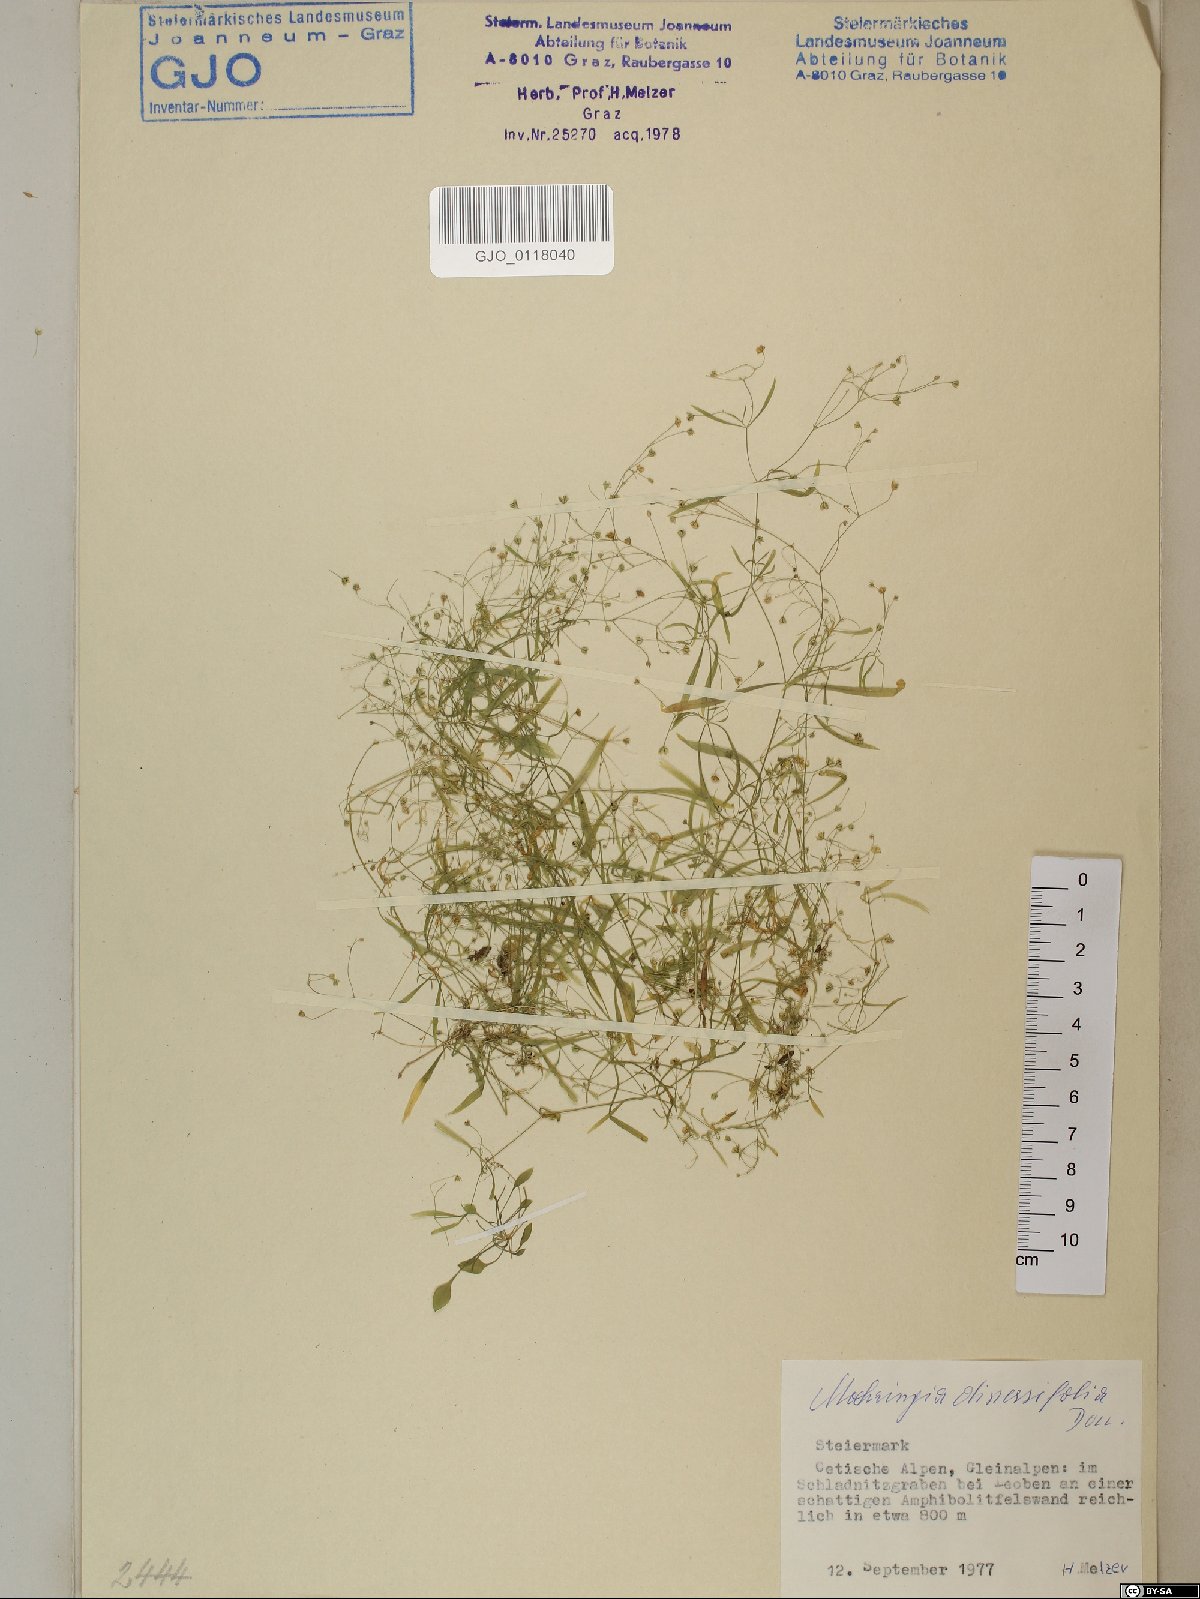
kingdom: Plantae
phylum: Tracheophyta
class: Magnoliopsida
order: Caryophyllales
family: Caryophyllaceae
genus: Moehringia
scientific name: Moehringia diversifolia
